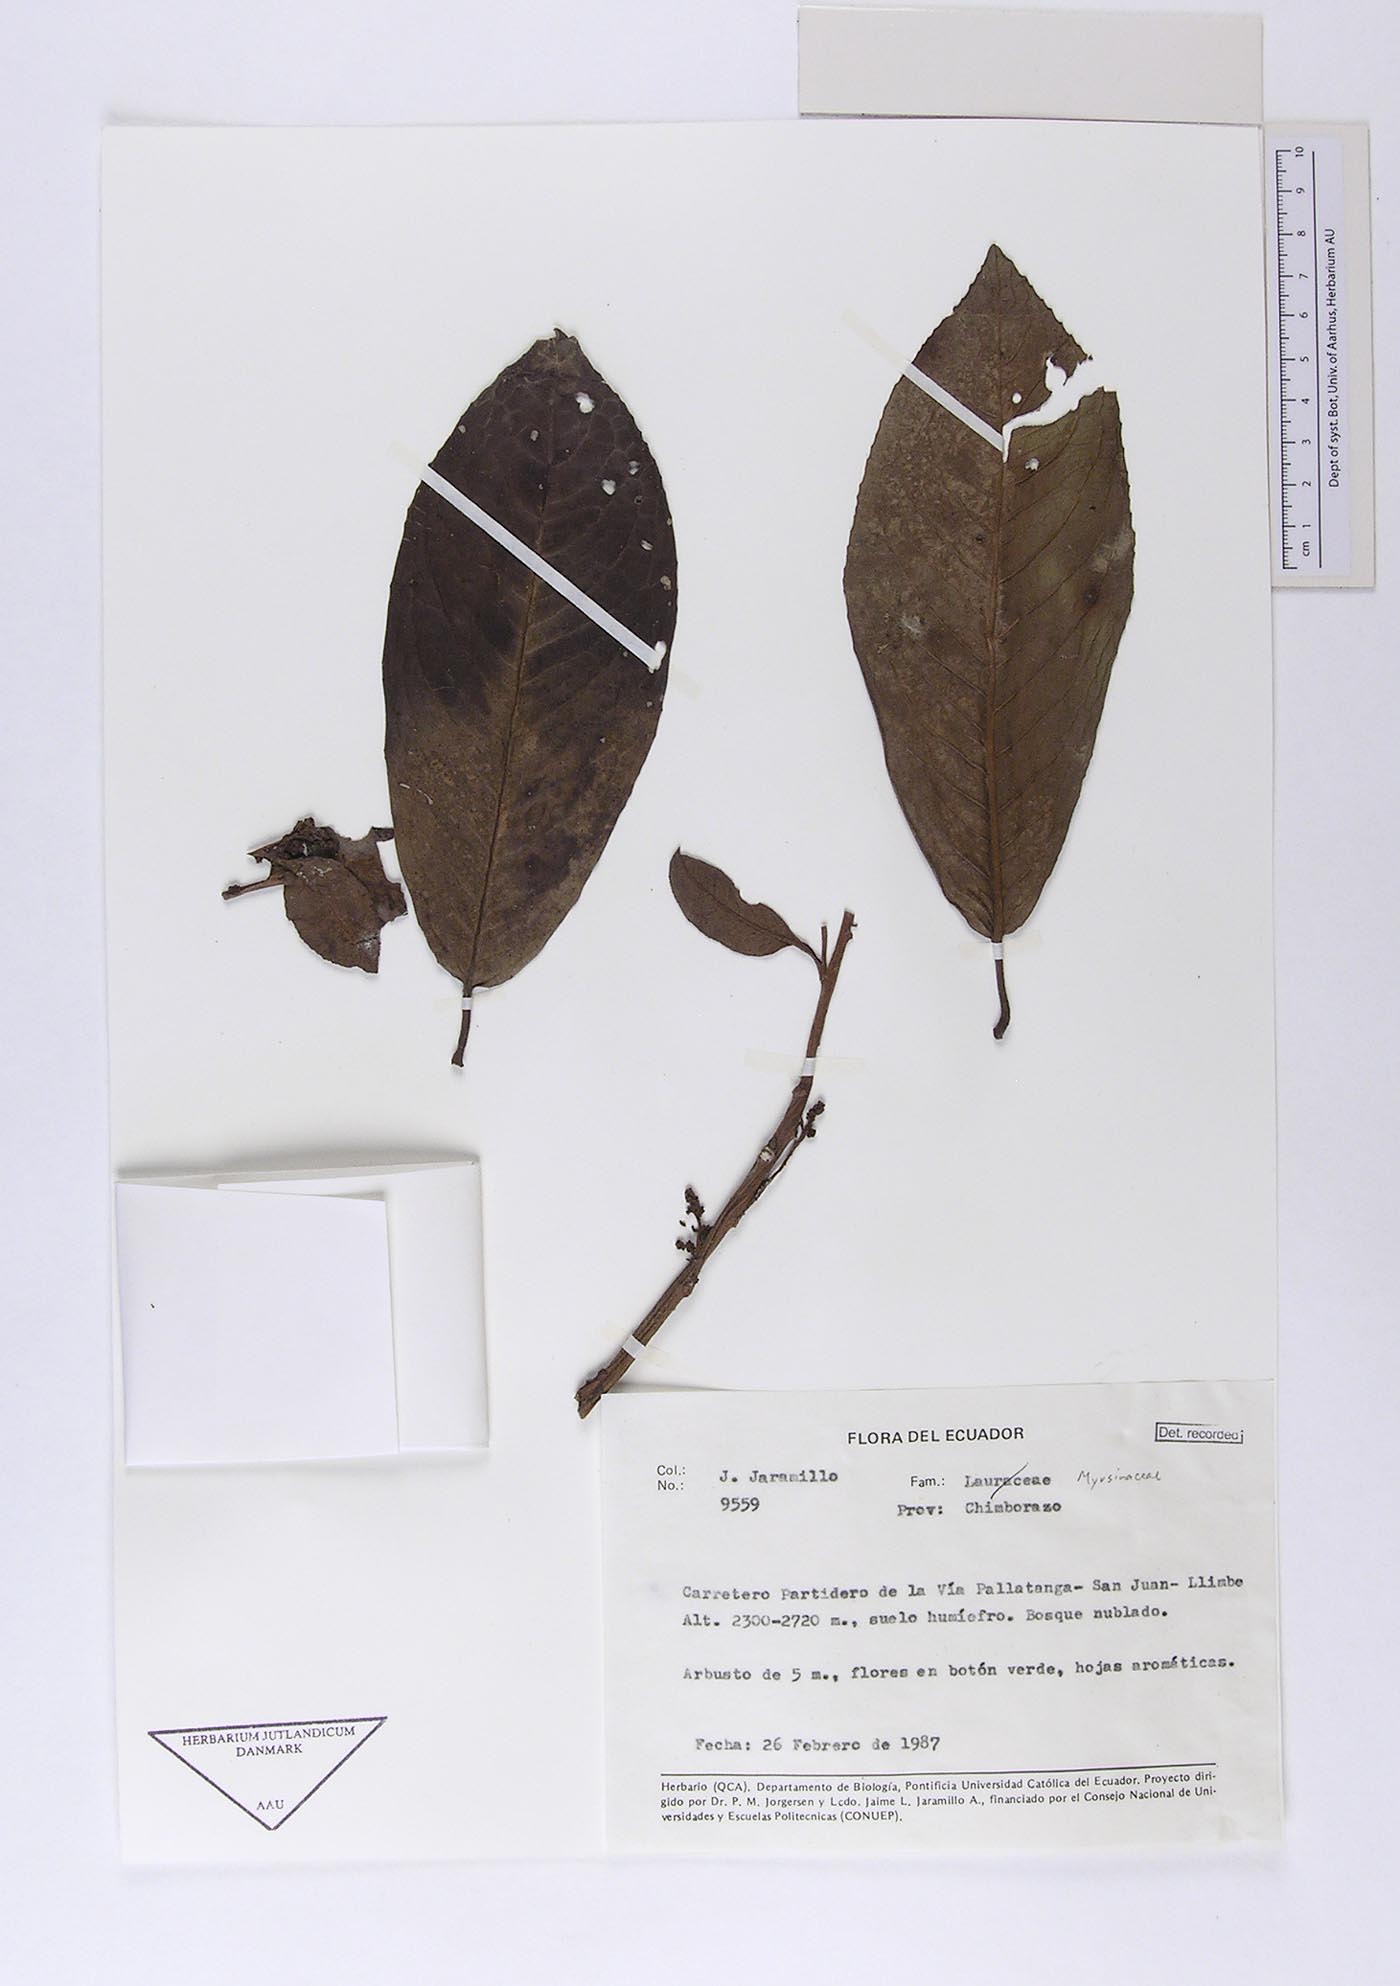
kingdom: Plantae
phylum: Tracheophyta
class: Magnoliopsida
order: Ericales
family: Primulaceae
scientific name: Primulaceae
